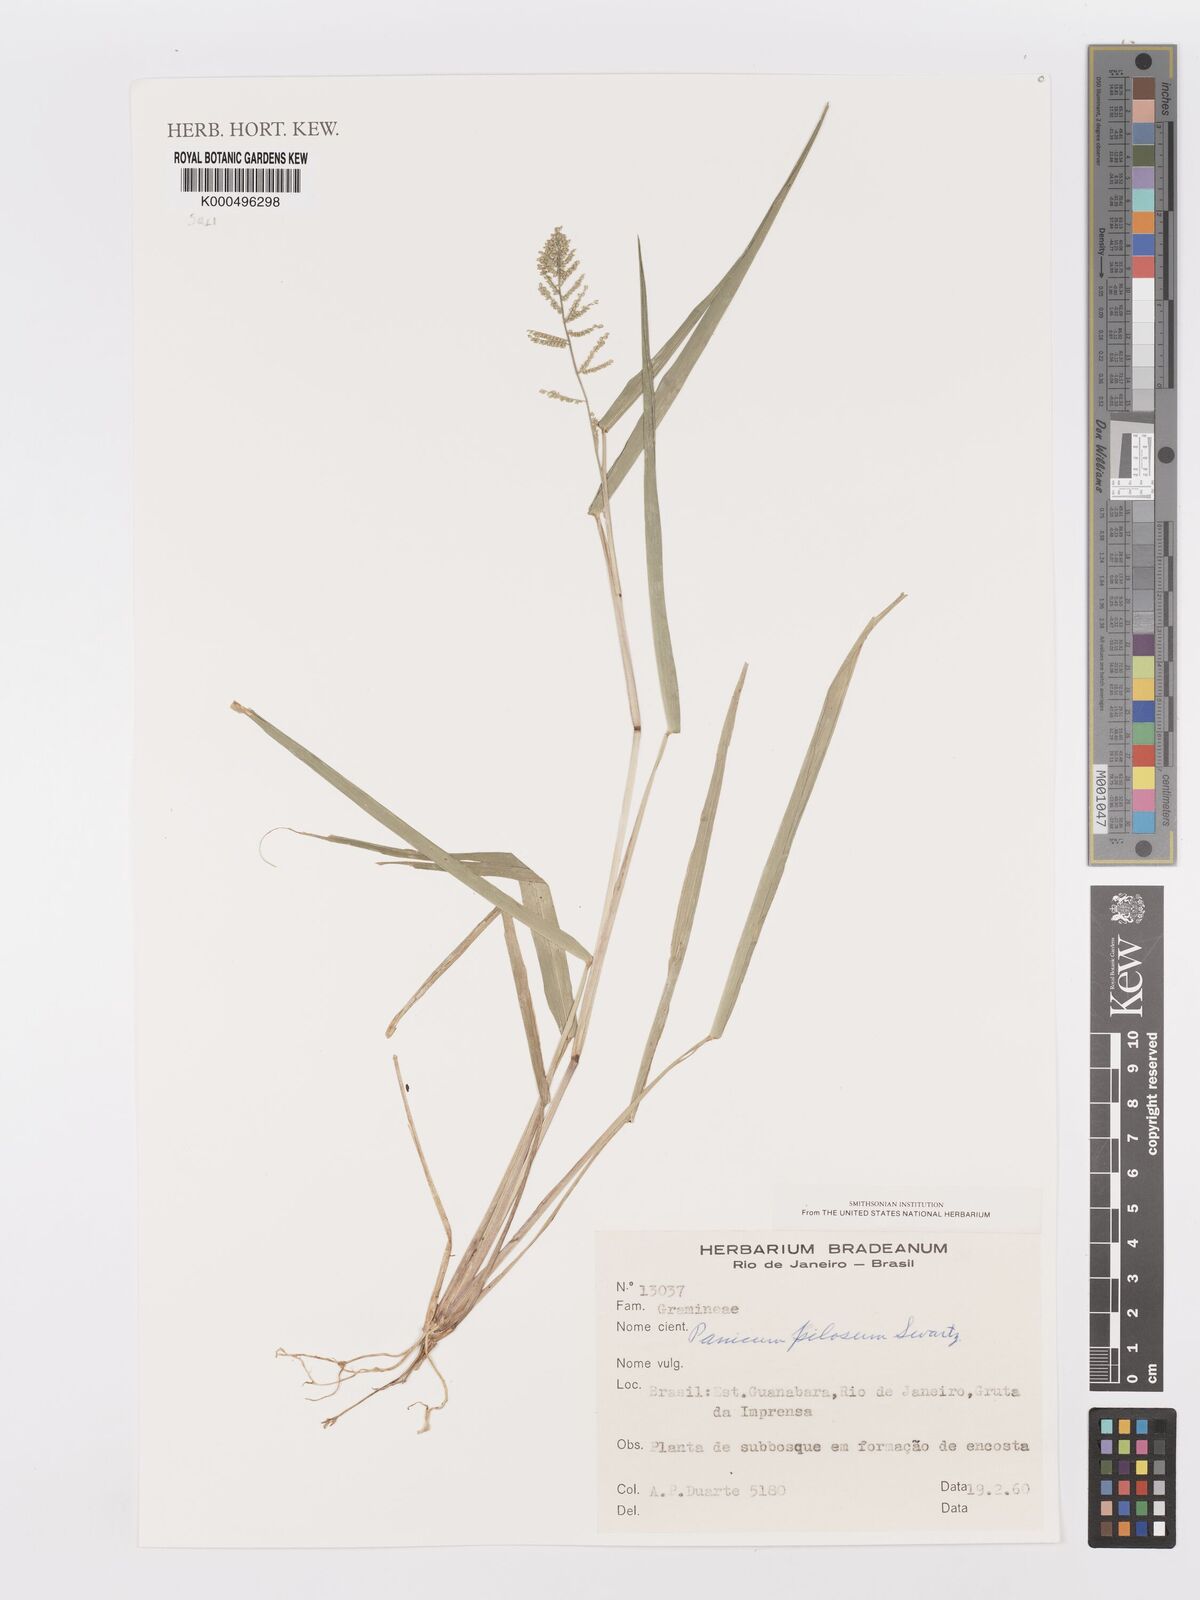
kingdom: Plantae
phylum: Tracheophyta
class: Liliopsida
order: Poales
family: Poaceae
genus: Panicum
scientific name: Panicum
